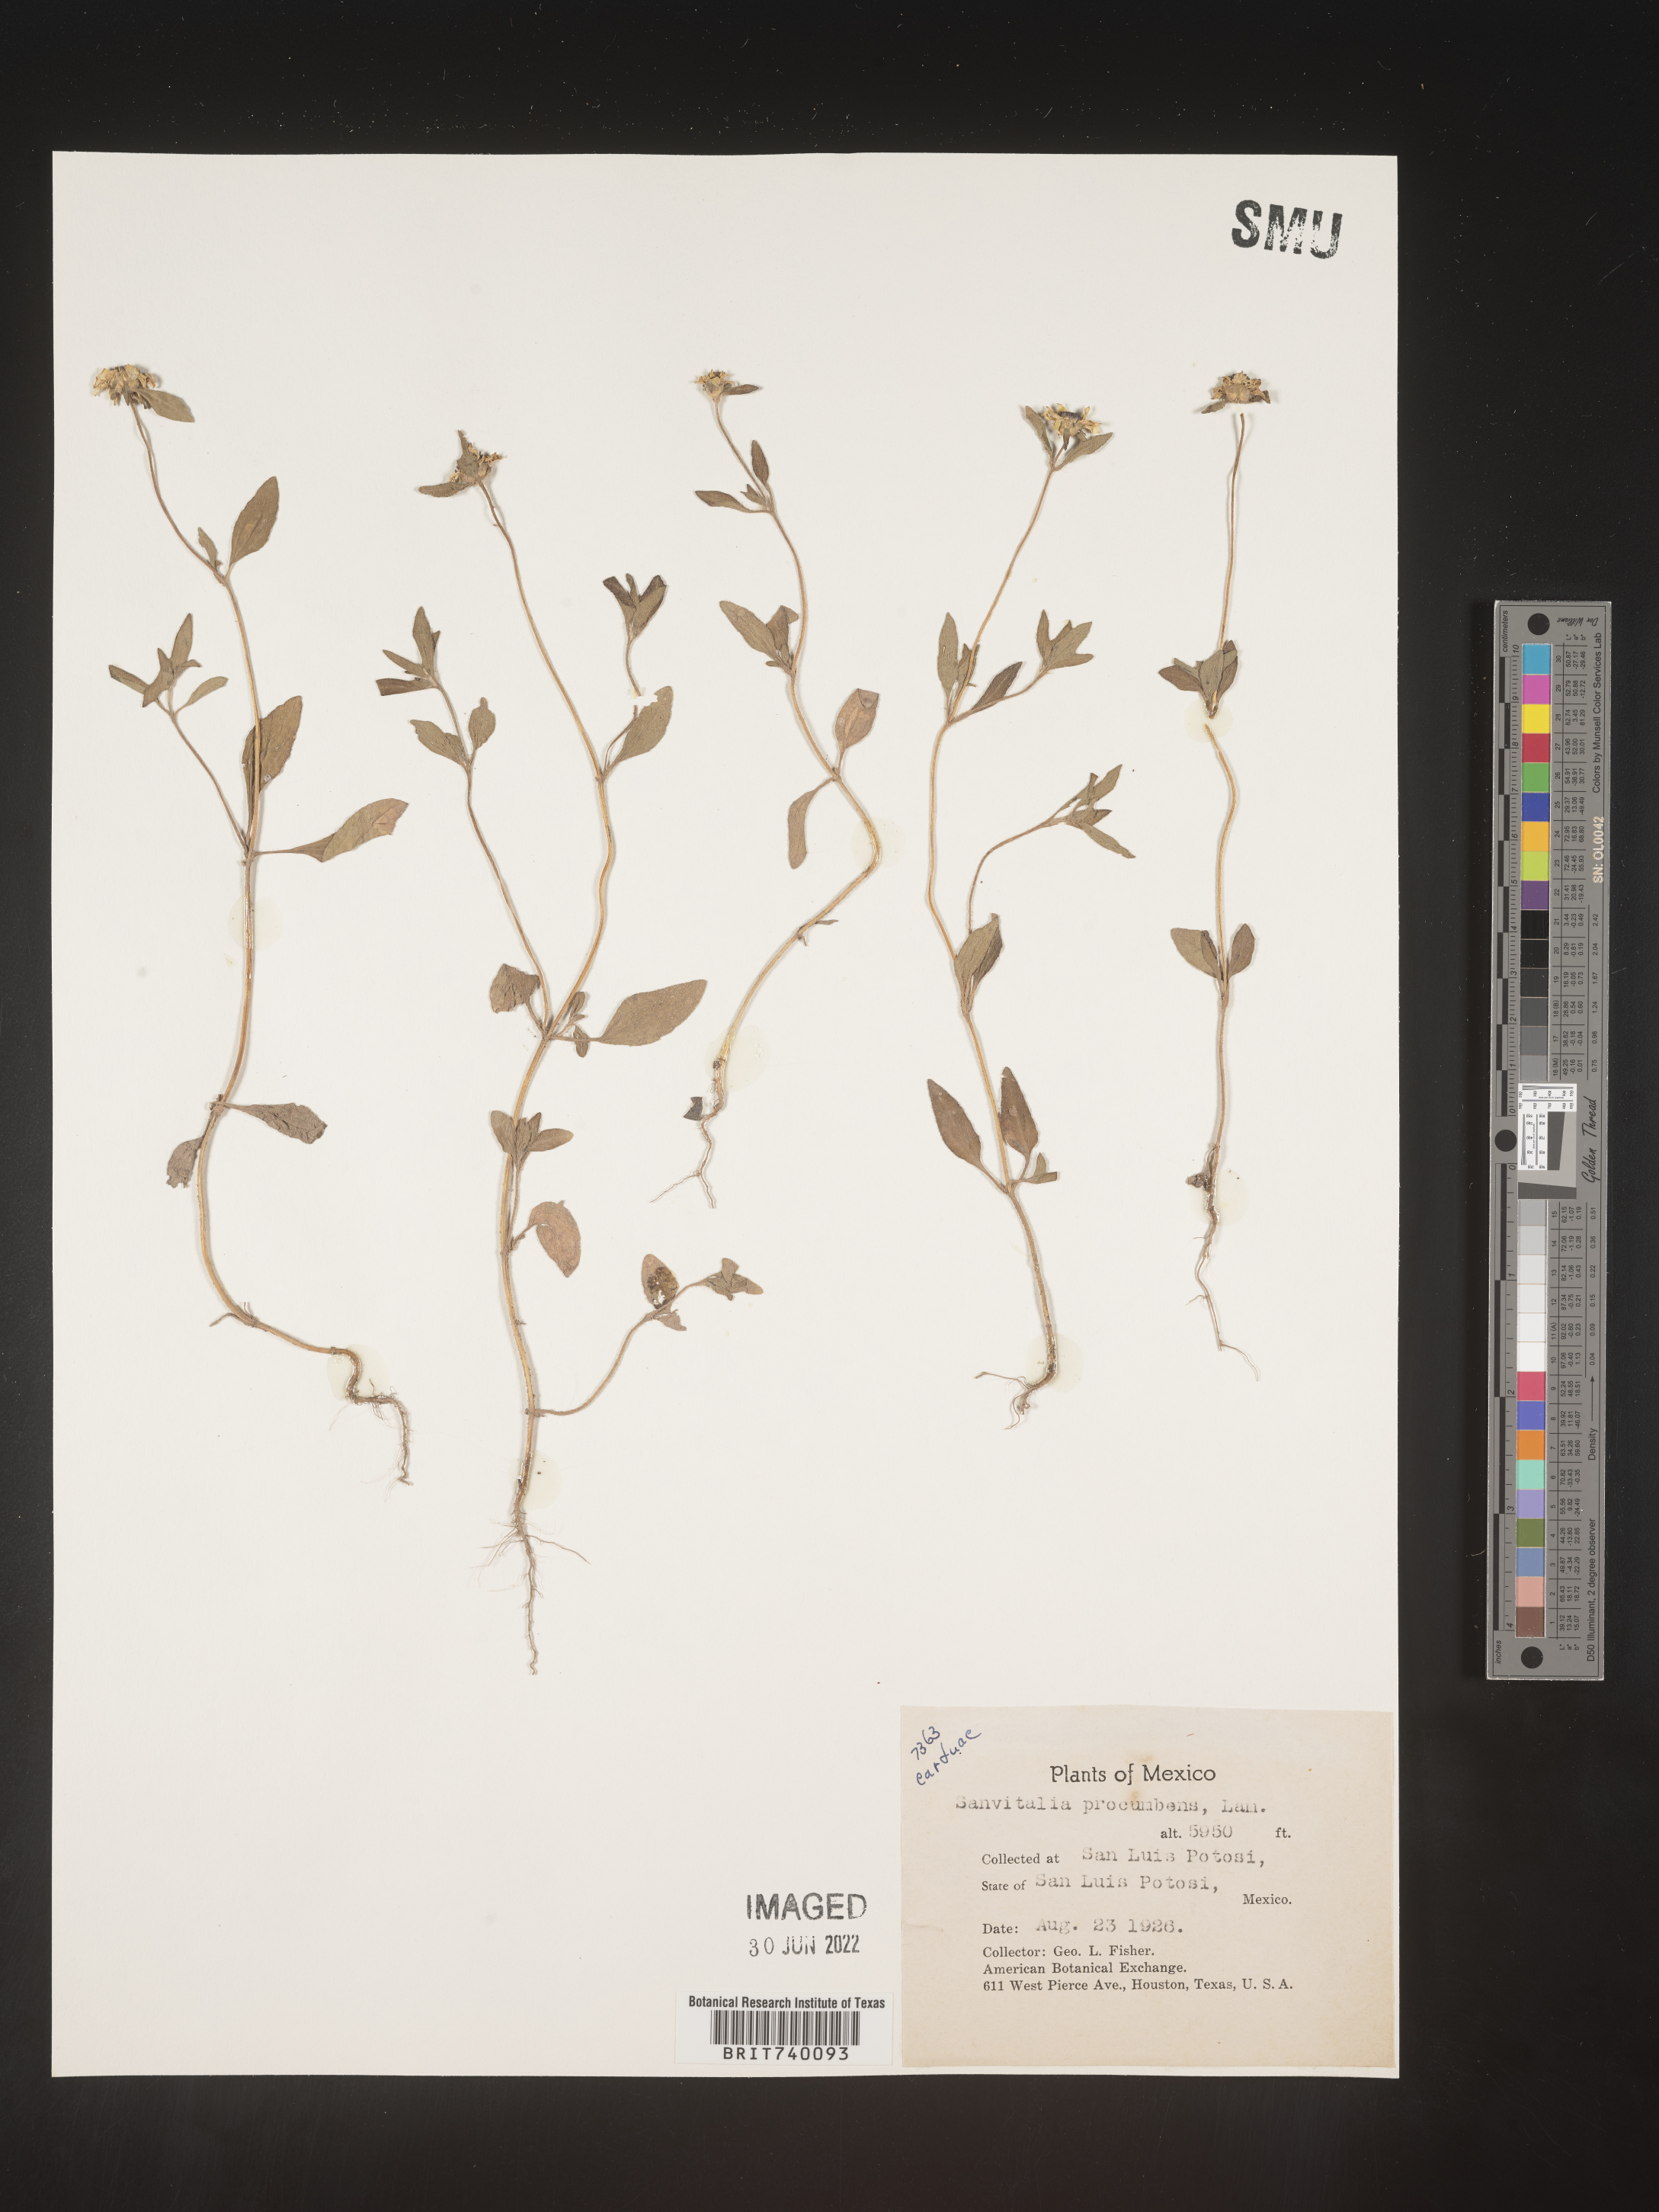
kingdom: Plantae
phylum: Tracheophyta
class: Magnoliopsida
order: Asterales
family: Asteraceae
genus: Sanvitalia
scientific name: Sanvitalia
